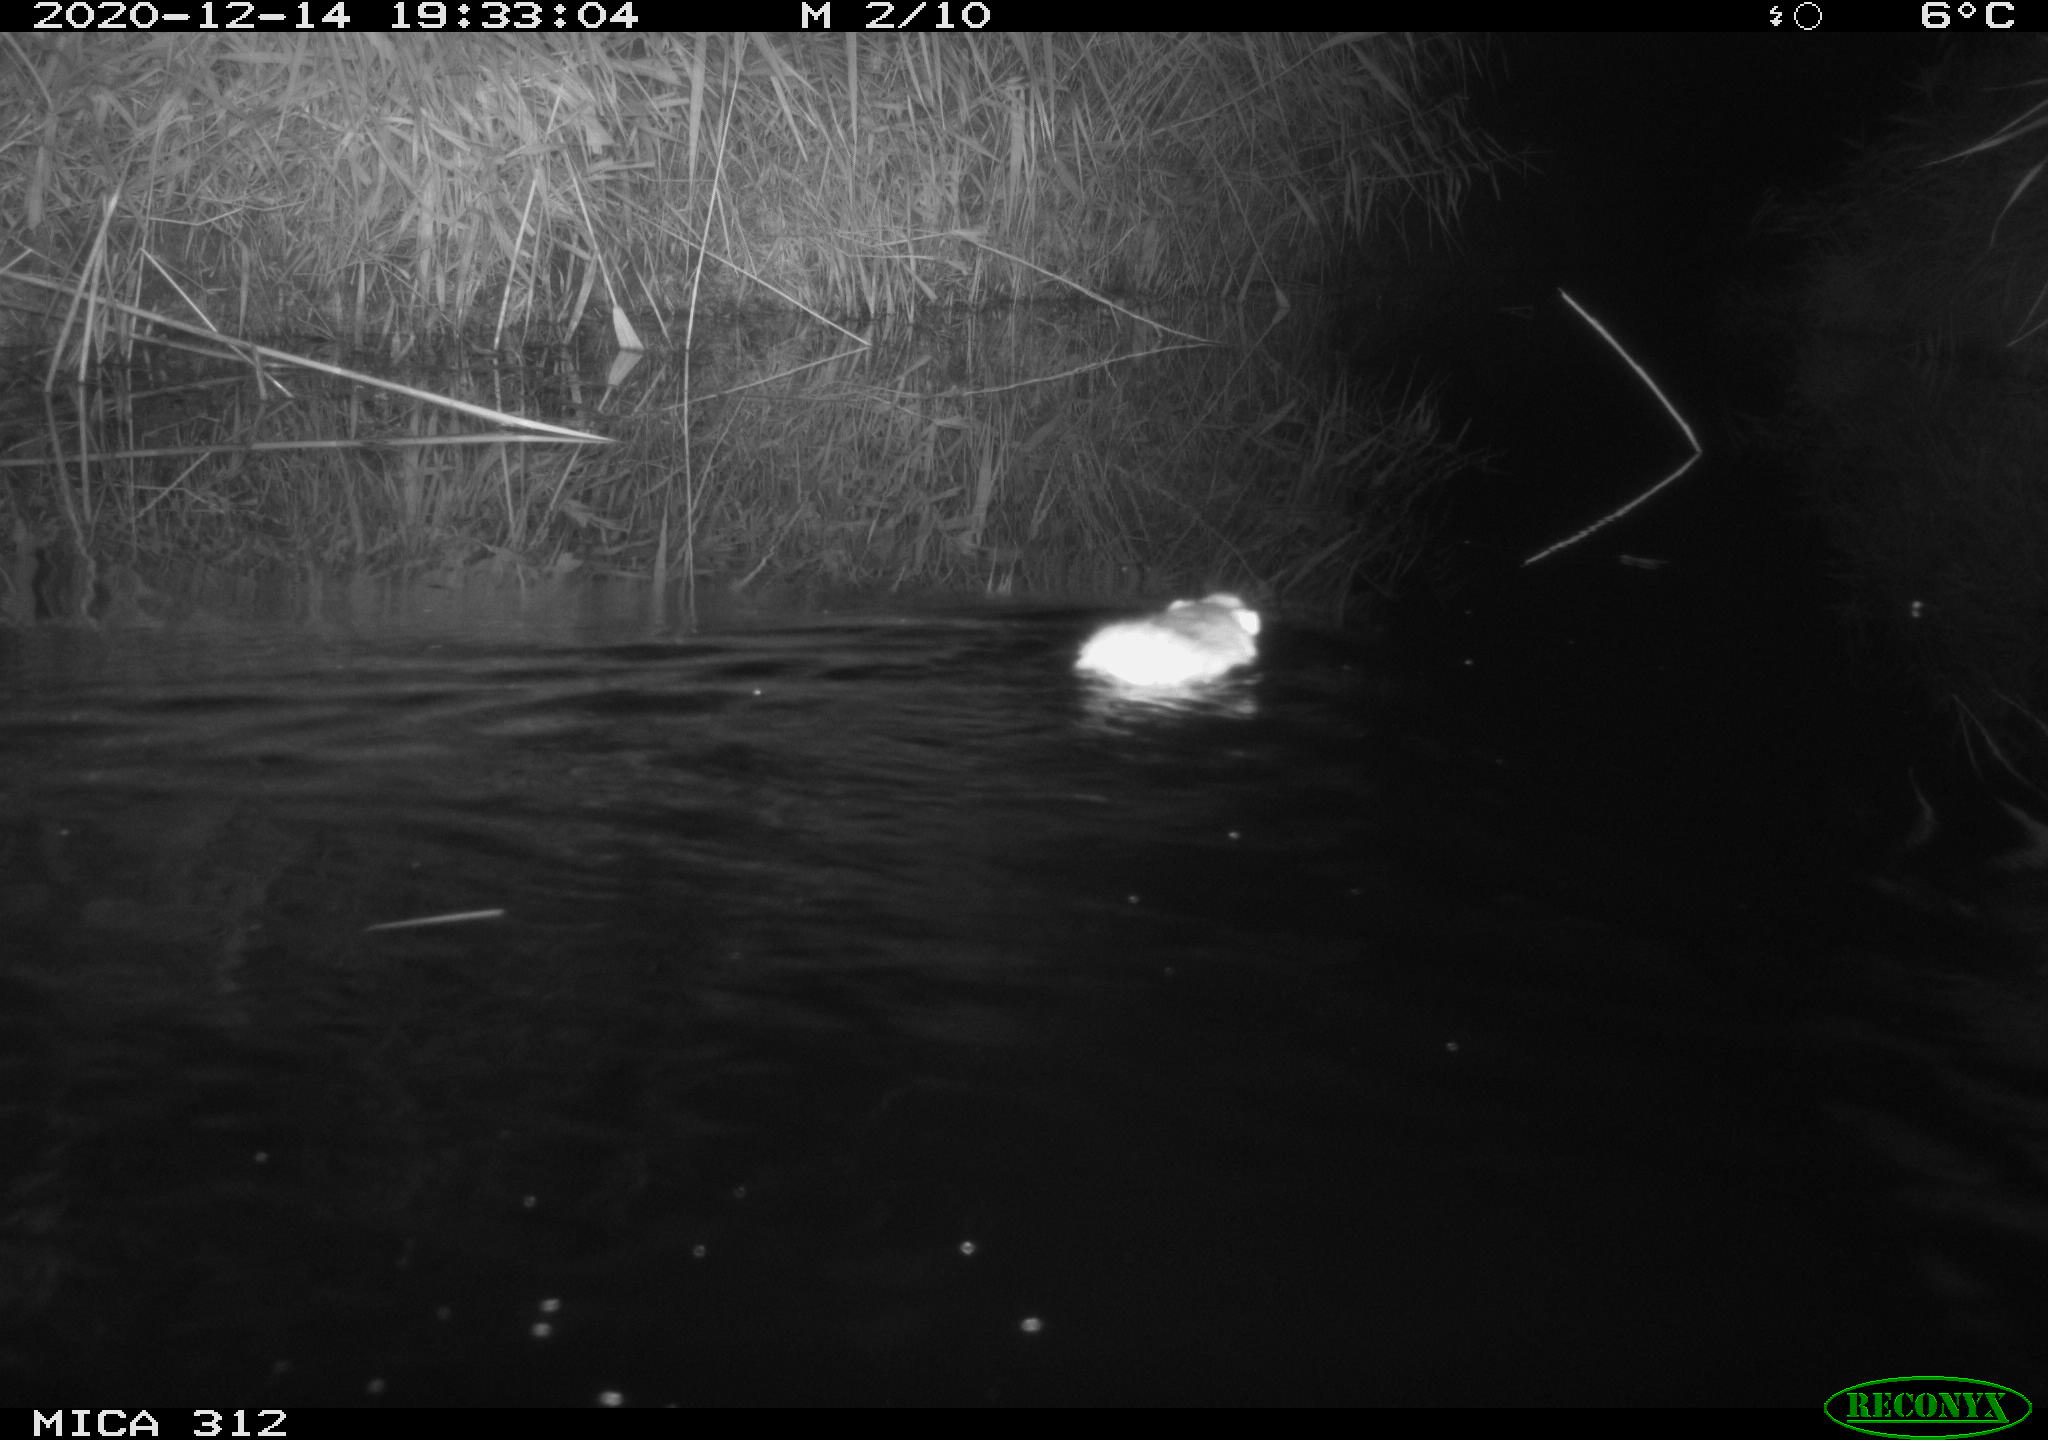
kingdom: Animalia
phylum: Chordata
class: Mammalia
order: Rodentia
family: Muridae
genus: Rattus
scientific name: Rattus norvegicus
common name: Brown rat
